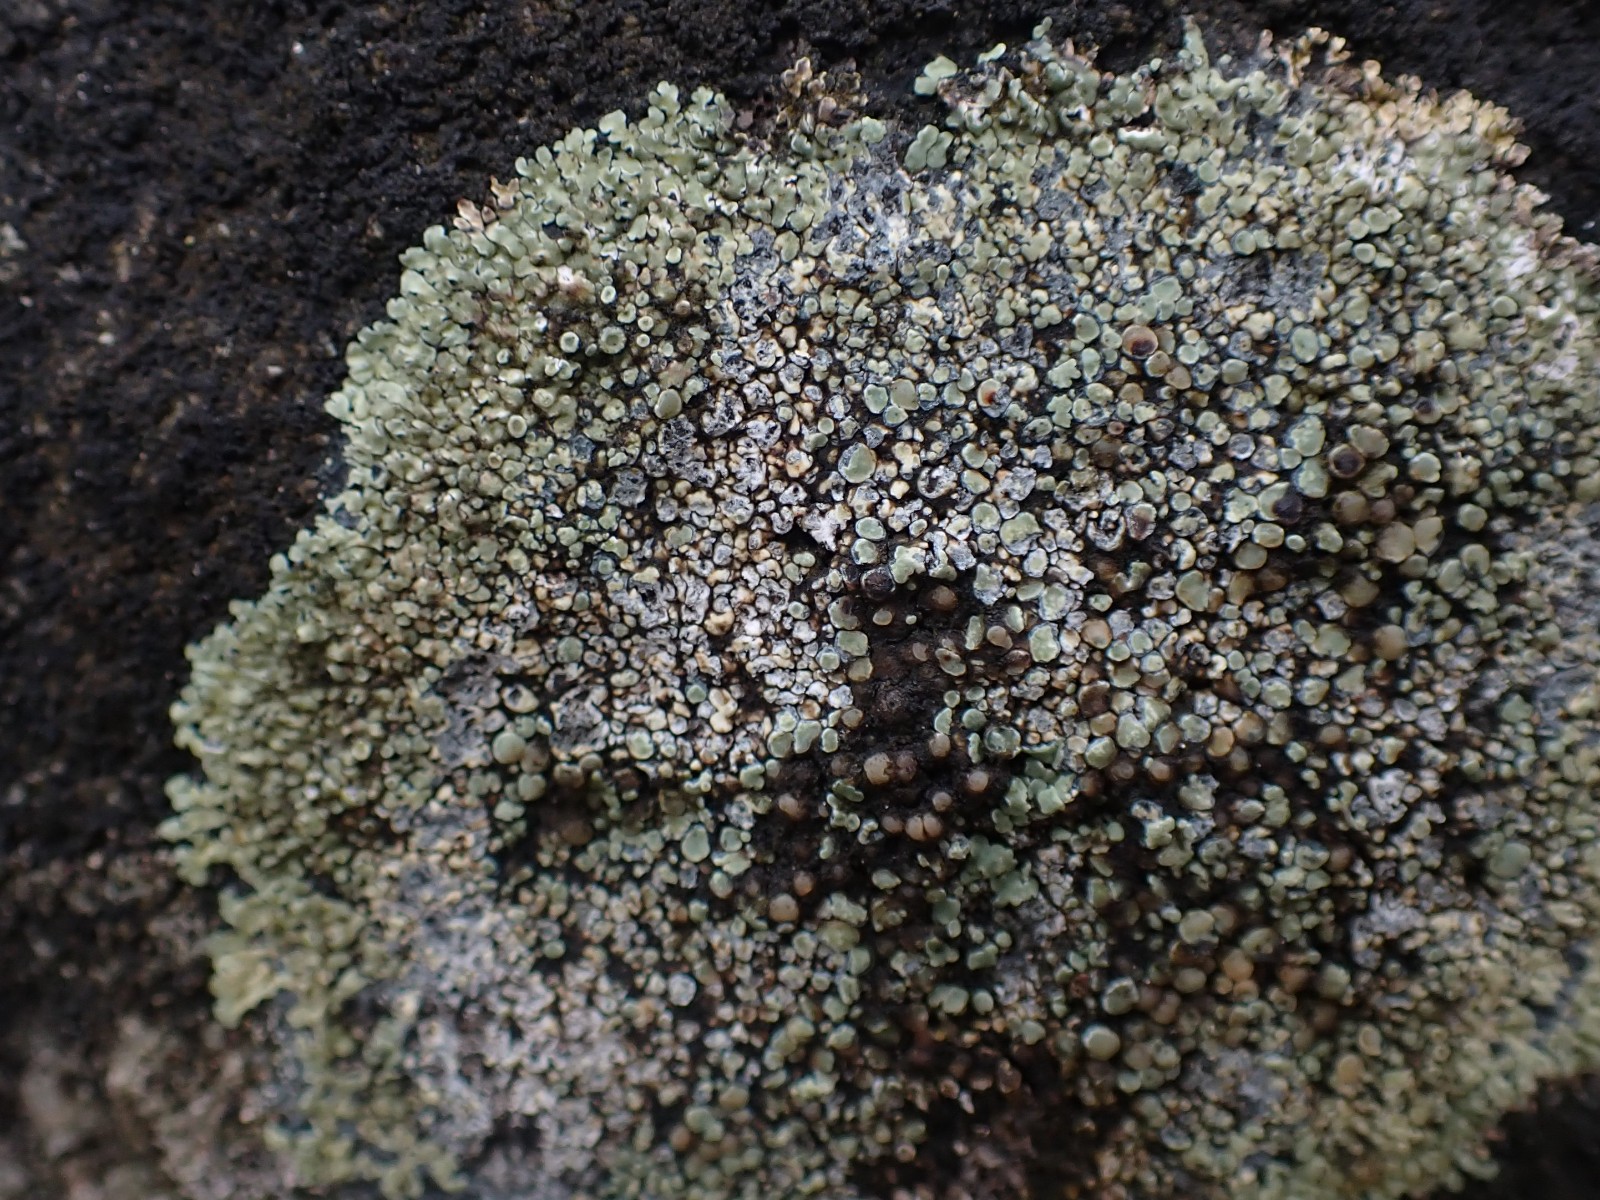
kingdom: Fungi
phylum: Ascomycota
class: Lecanoromycetes
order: Lecanorales
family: Lecanoraceae
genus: Protoparmeliopsis
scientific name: Protoparmeliopsis muralis
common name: randfliget kantskivelav
